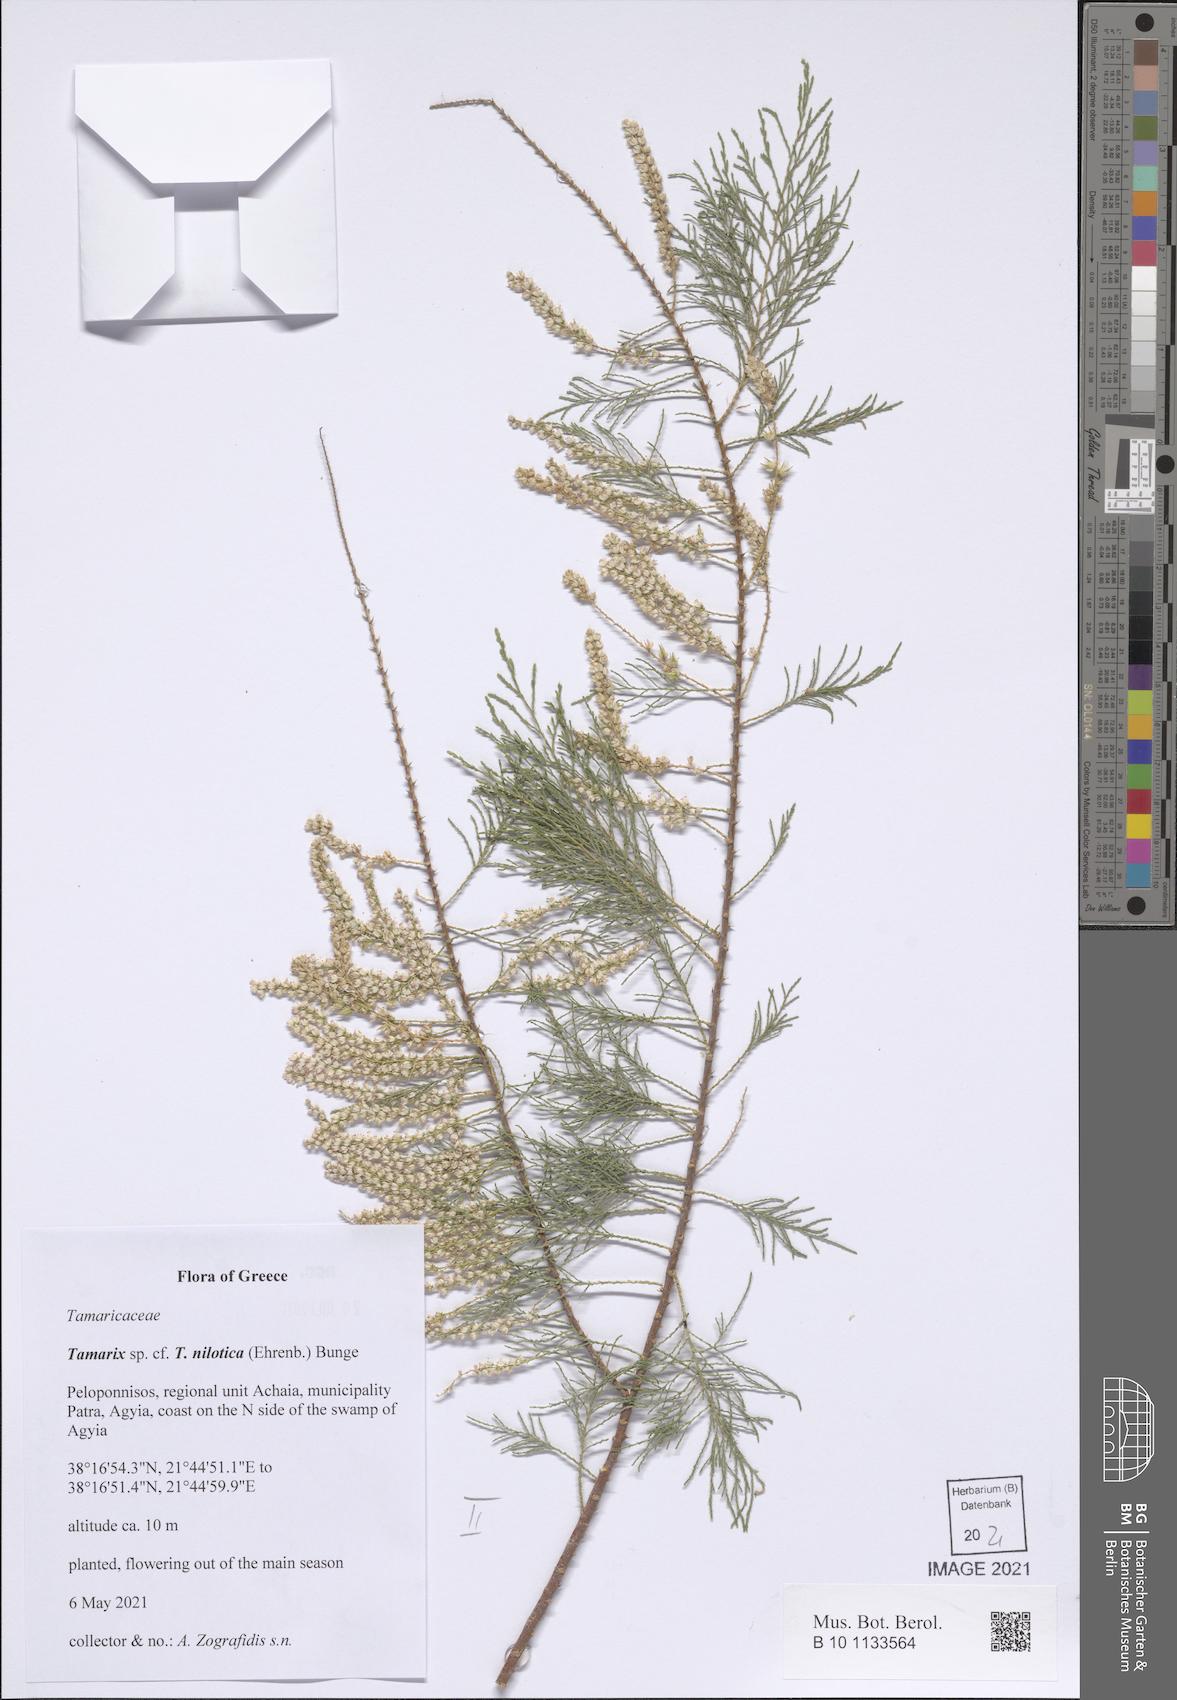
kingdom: Plantae
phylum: Tracheophyta
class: Magnoliopsida
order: Caryophyllales
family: Tamaricaceae
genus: Tamarix
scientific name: Tamarix nilotica
